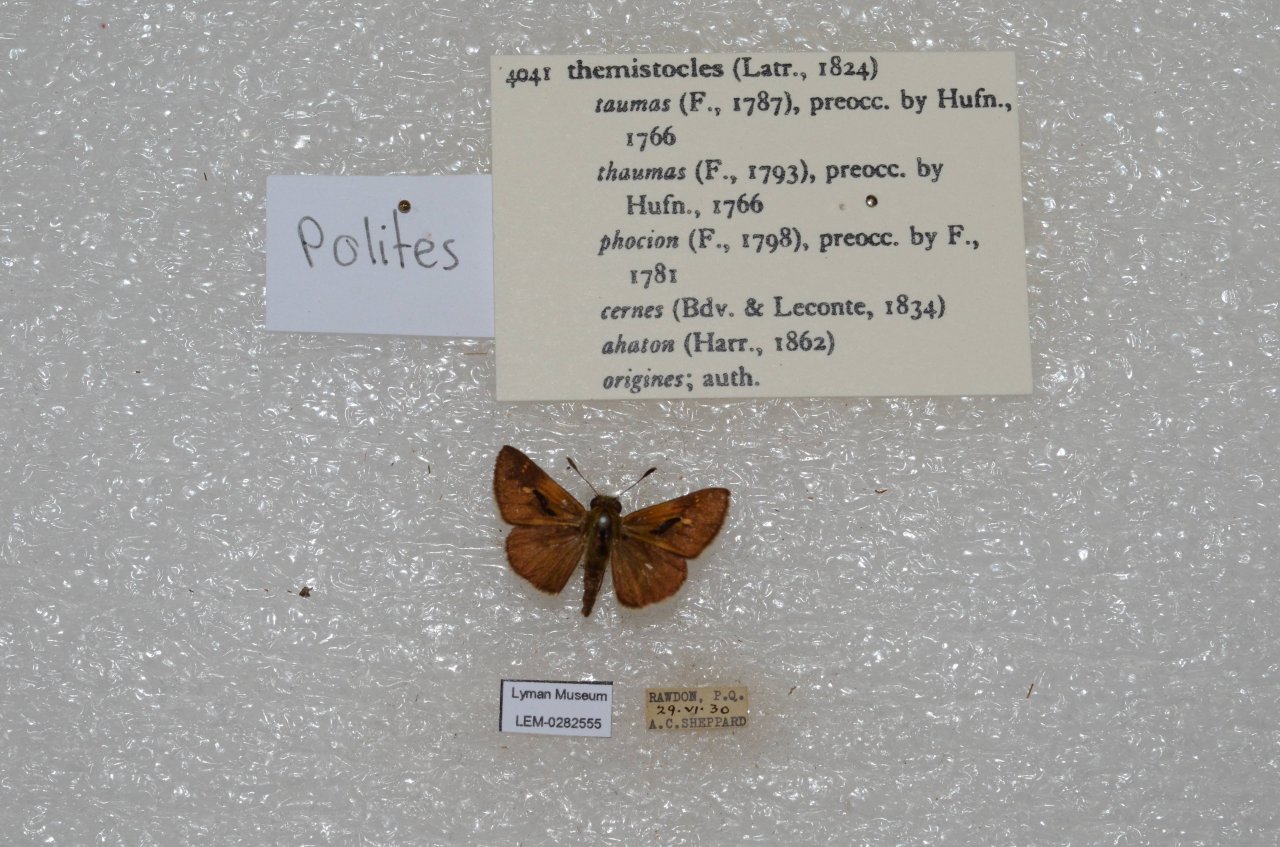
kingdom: Animalia
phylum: Arthropoda
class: Insecta
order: Lepidoptera
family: Hesperiidae
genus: Polites
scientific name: Polites themistocles
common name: Tawny-edged Skipper
